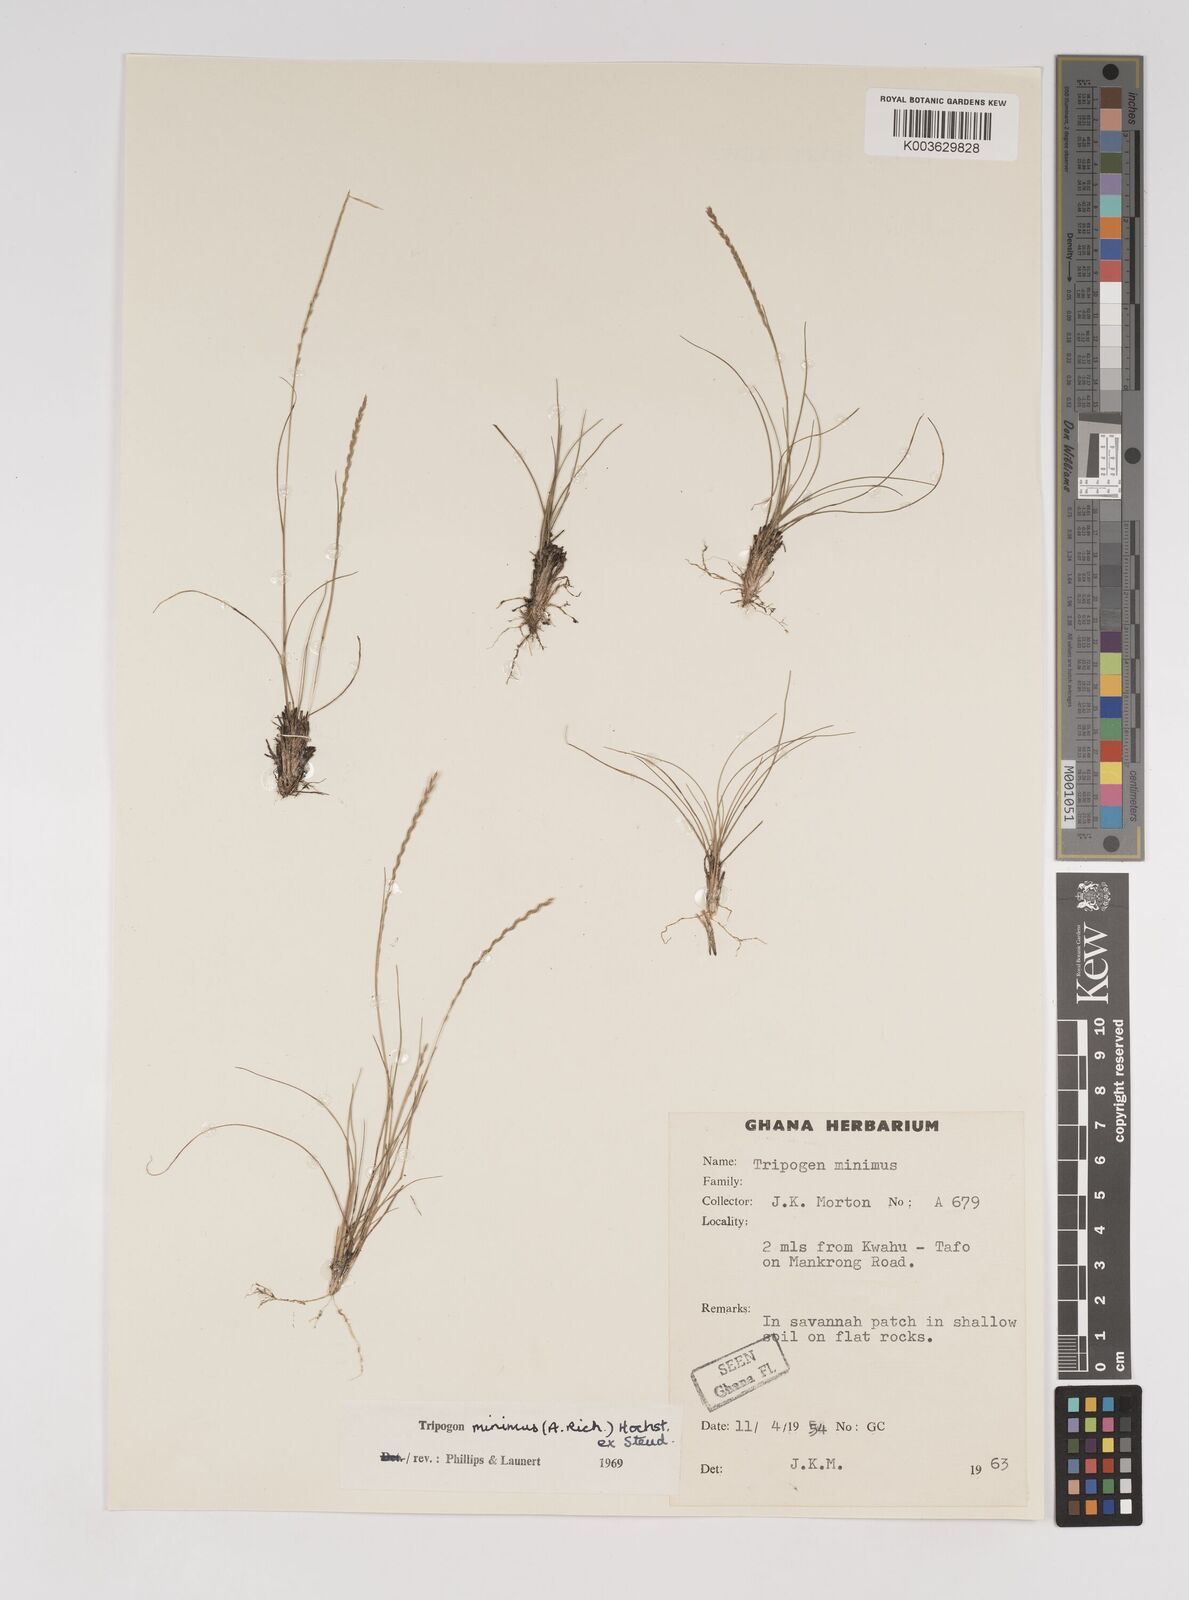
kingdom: Plantae
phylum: Tracheophyta
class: Liliopsida
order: Poales
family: Poaceae
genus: Tripogonella
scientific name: Tripogonella minima
